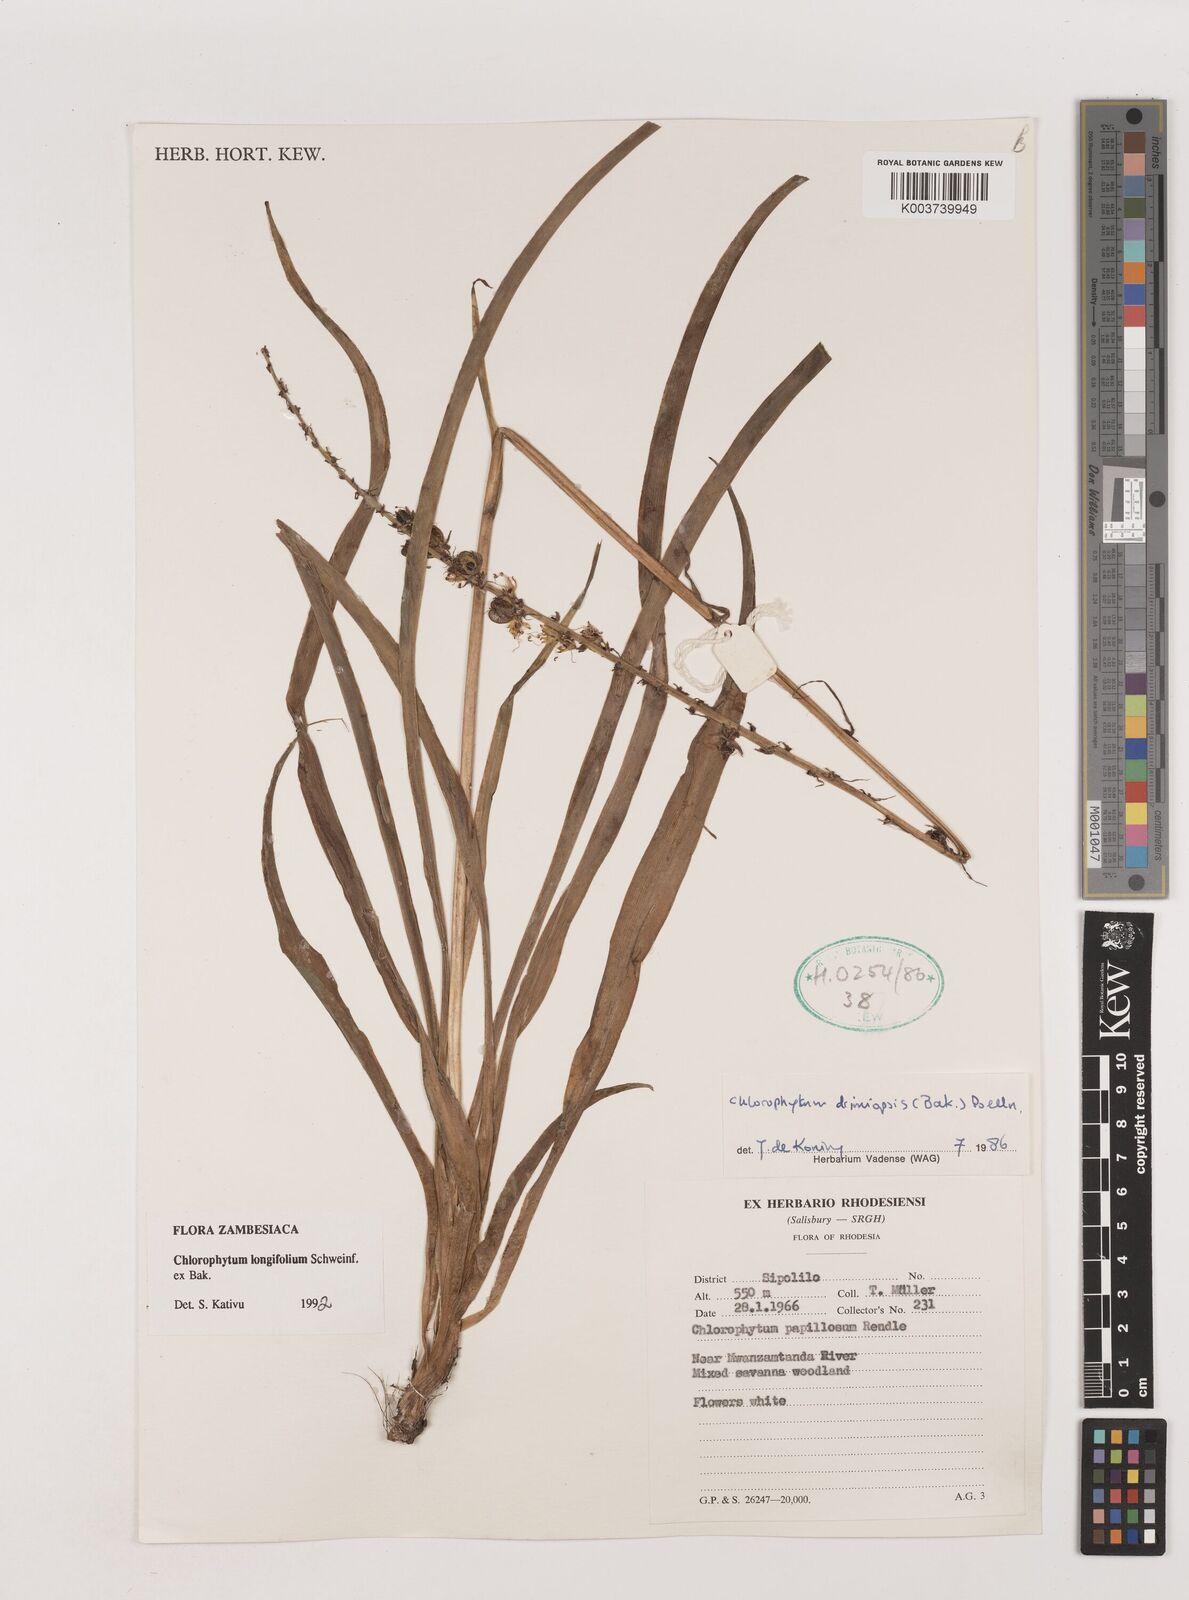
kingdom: Plantae
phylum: Tracheophyta
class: Liliopsida
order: Asparagales
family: Asparagaceae
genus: Chlorophytum
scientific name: Chlorophytum longifolium
